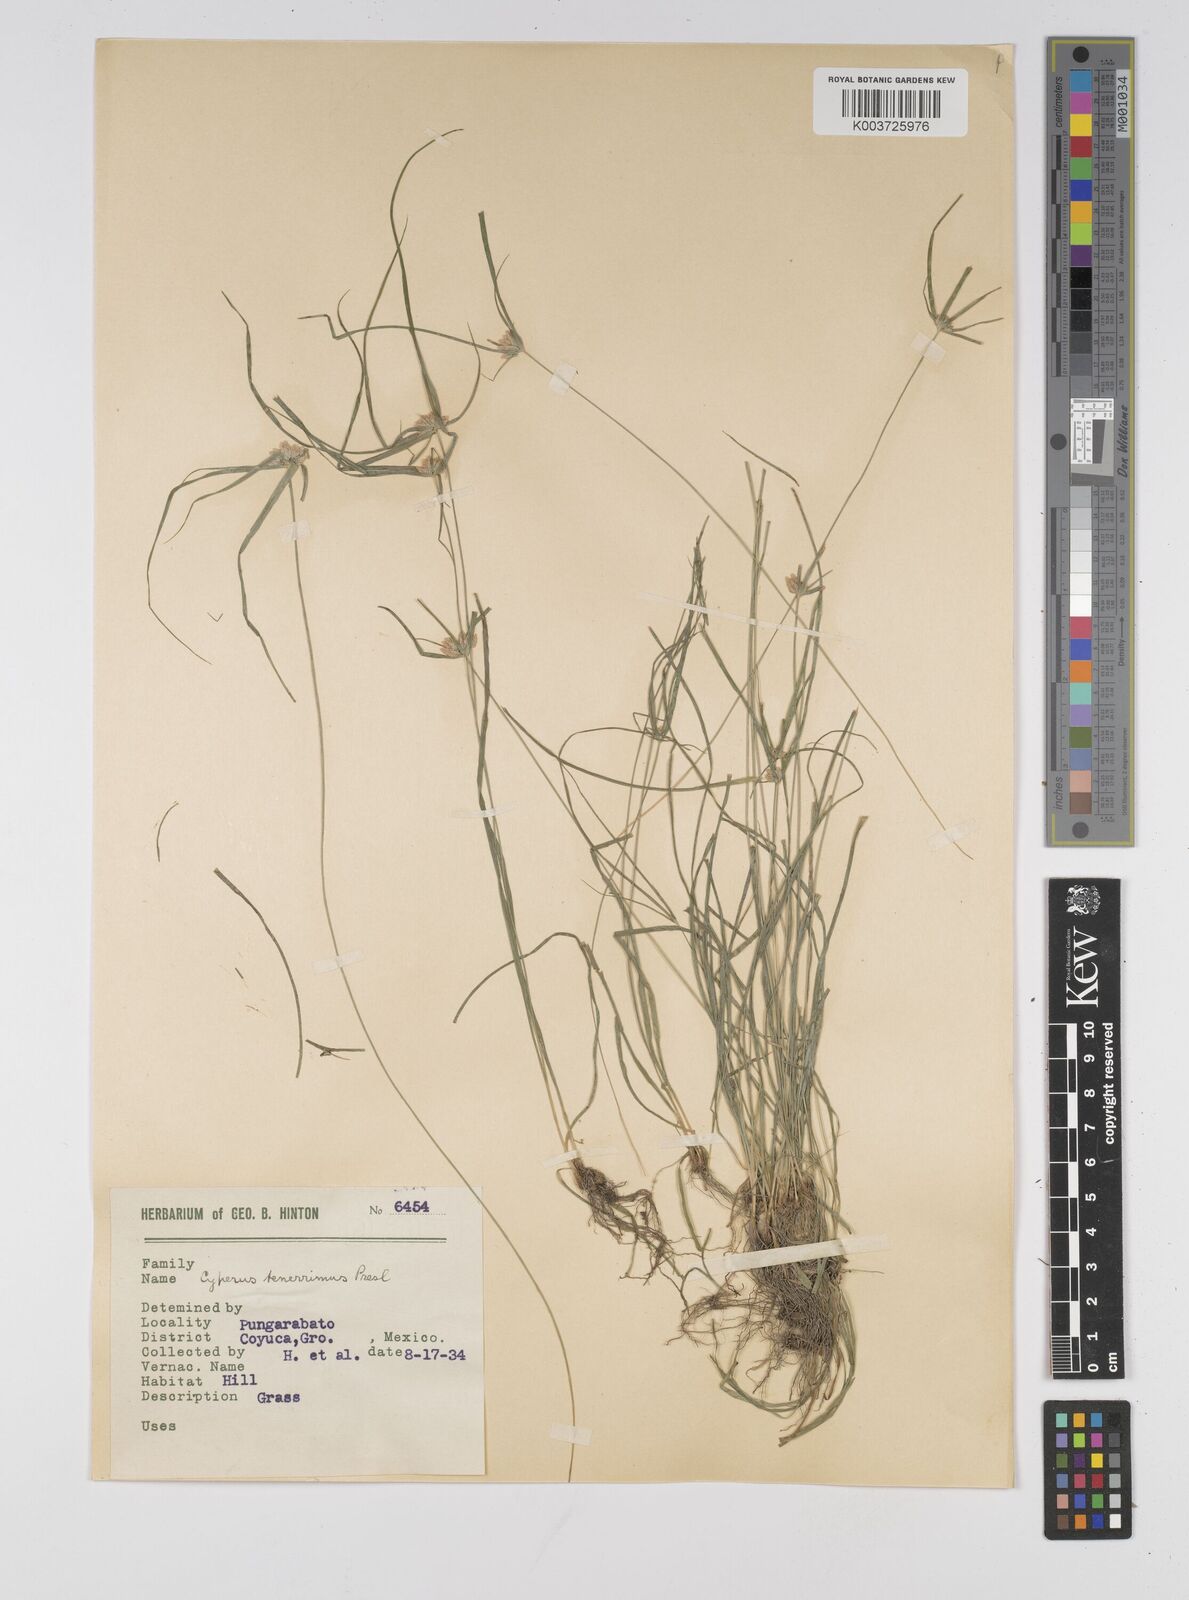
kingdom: Plantae
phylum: Tracheophyta
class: Liliopsida
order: Poales
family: Cyperaceae
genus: Cyperus
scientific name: Cyperus tenerrimus
